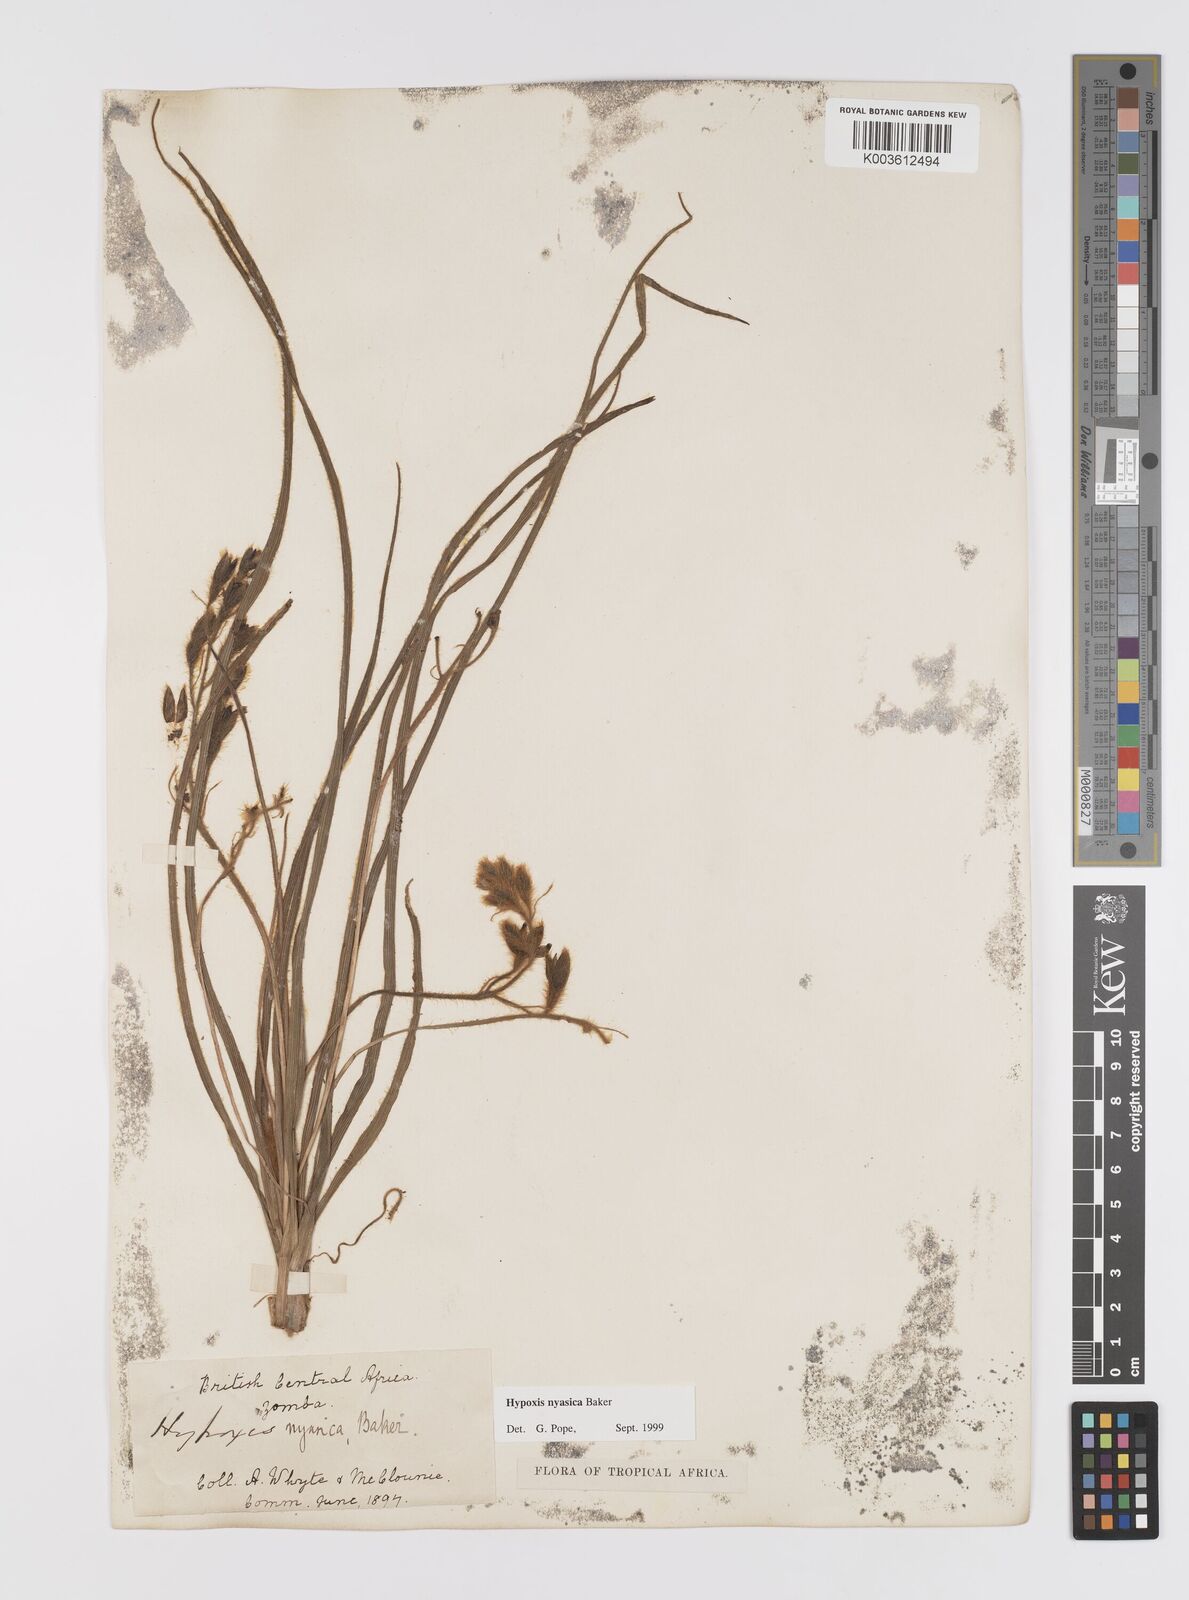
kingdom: Plantae
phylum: Tracheophyta
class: Liliopsida
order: Asparagales
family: Hypoxidaceae
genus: Hypoxis
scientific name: Hypoxis nyasica
